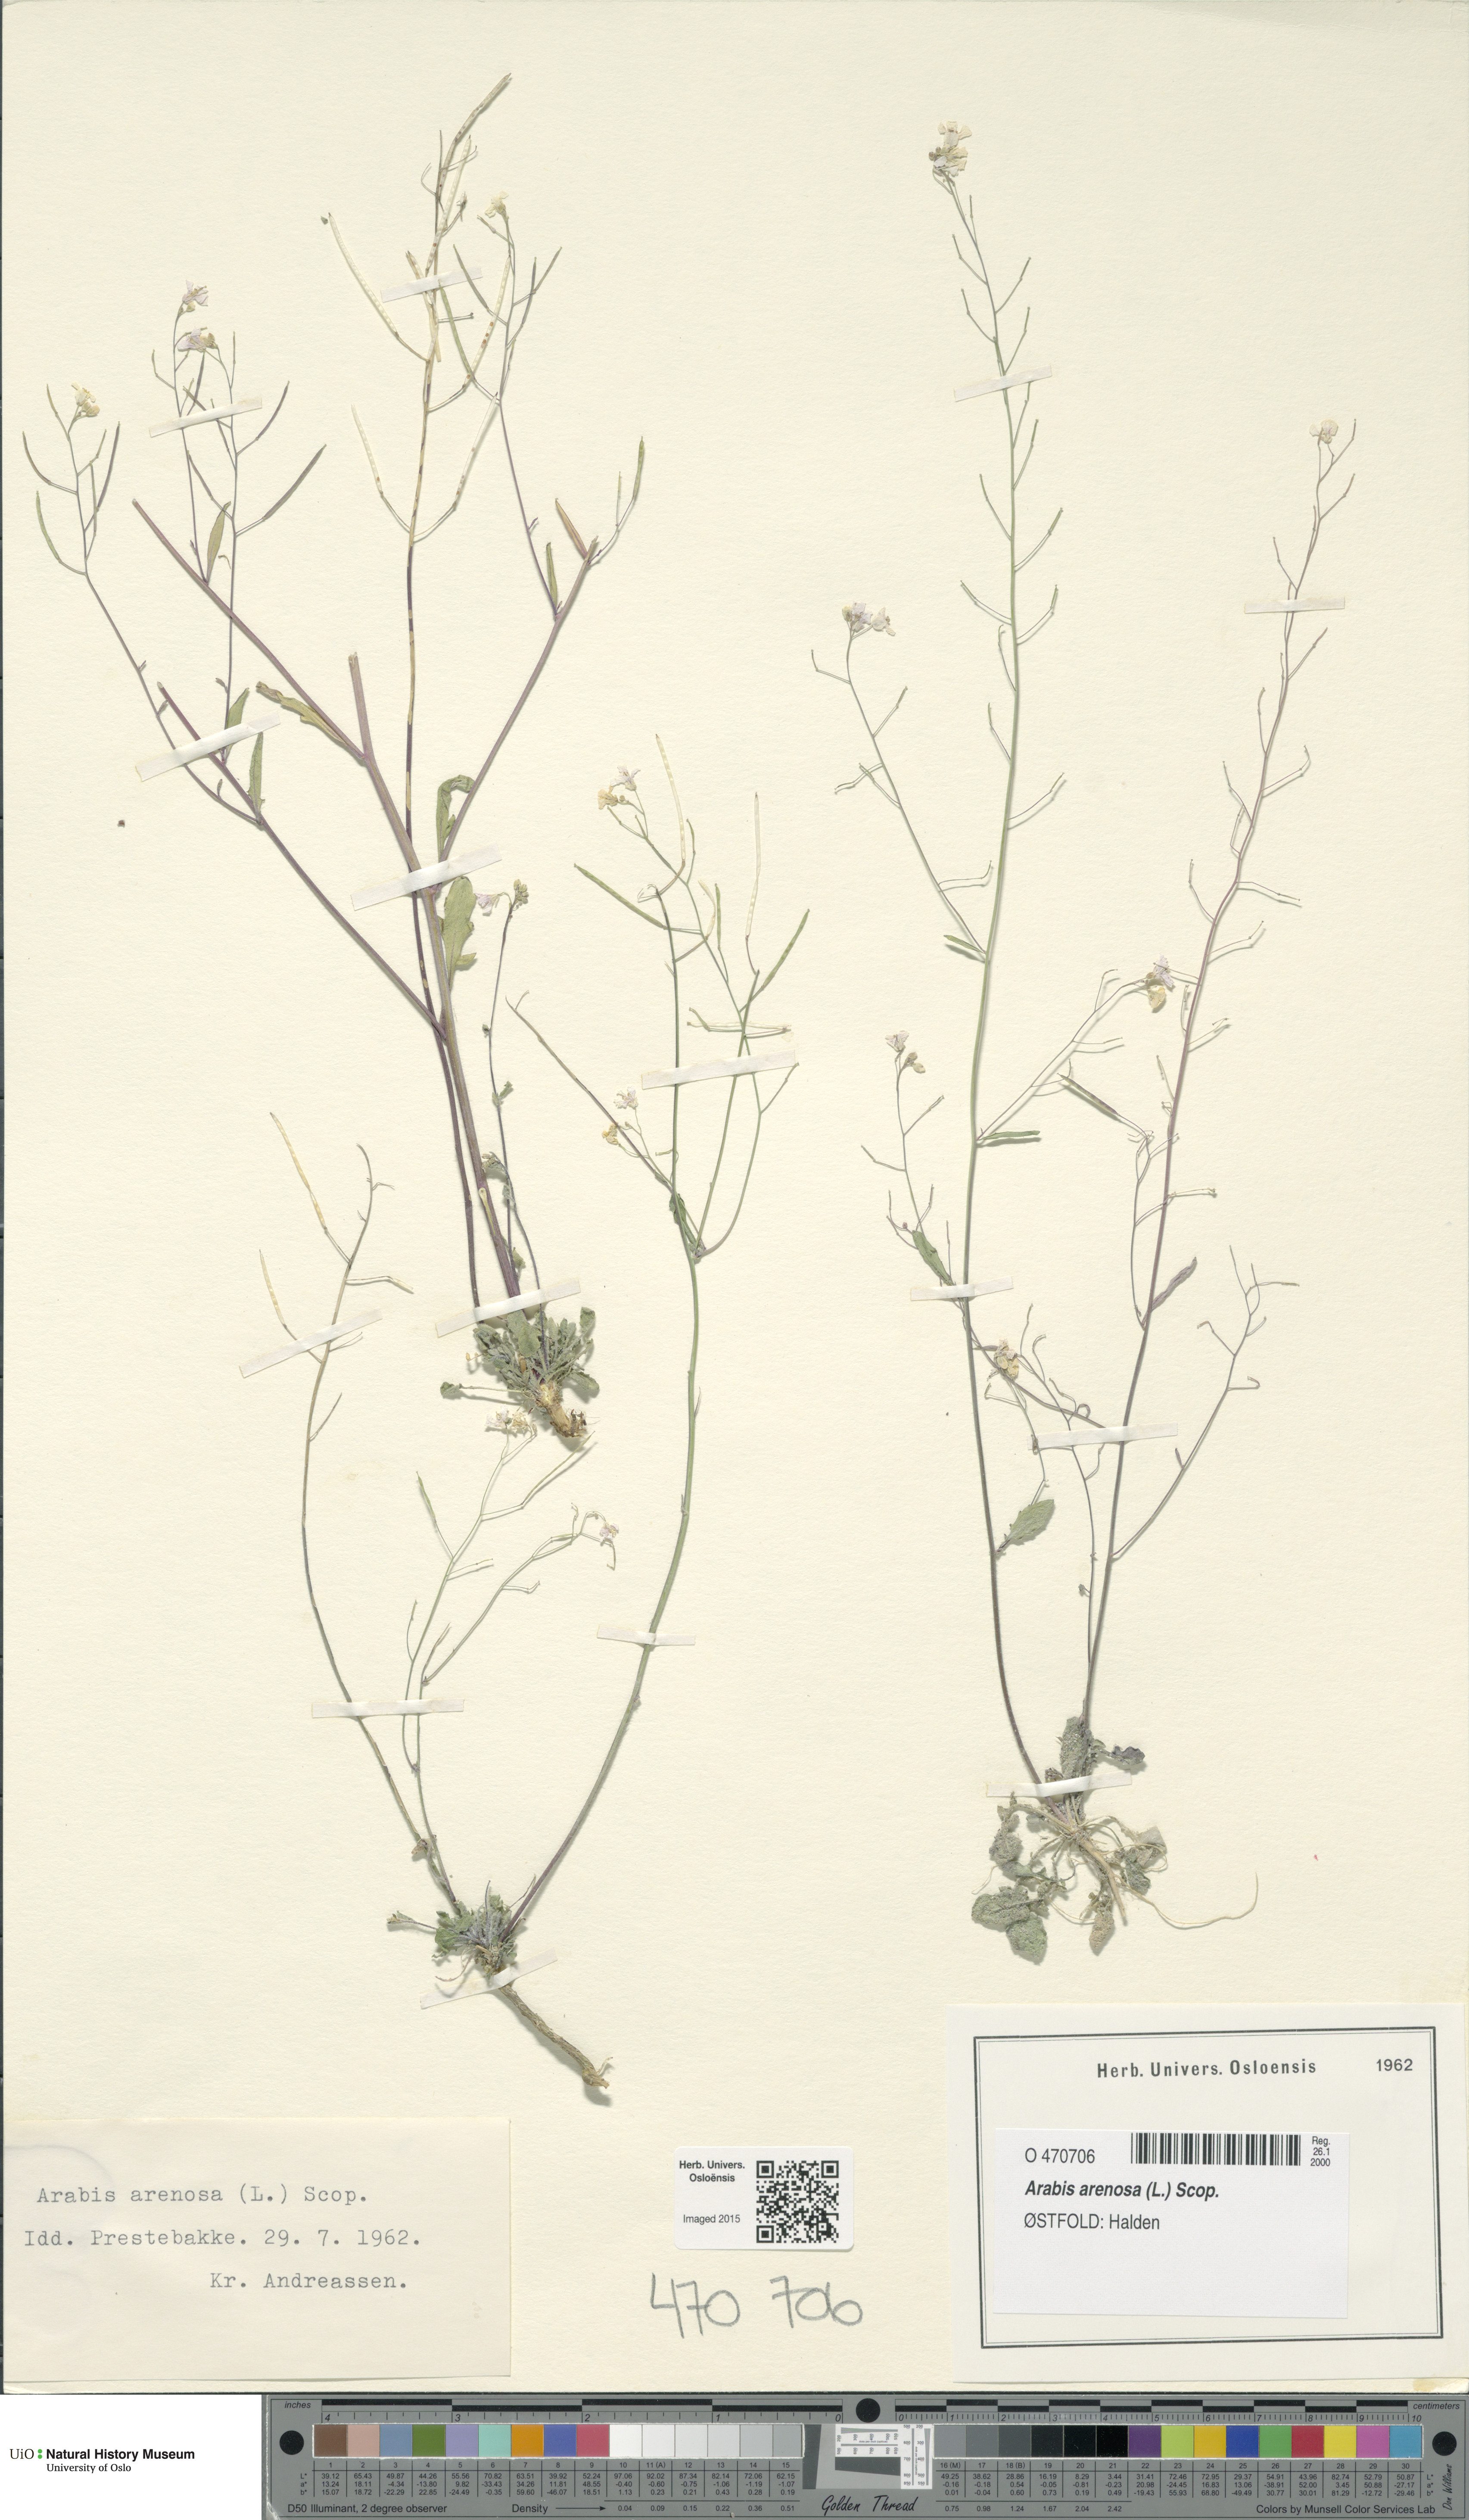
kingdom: Plantae
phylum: Tracheophyta
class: Magnoliopsida
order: Brassicales
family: Brassicaceae
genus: Arabidopsis
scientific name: Arabidopsis arenosa
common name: Sand rock-cress
